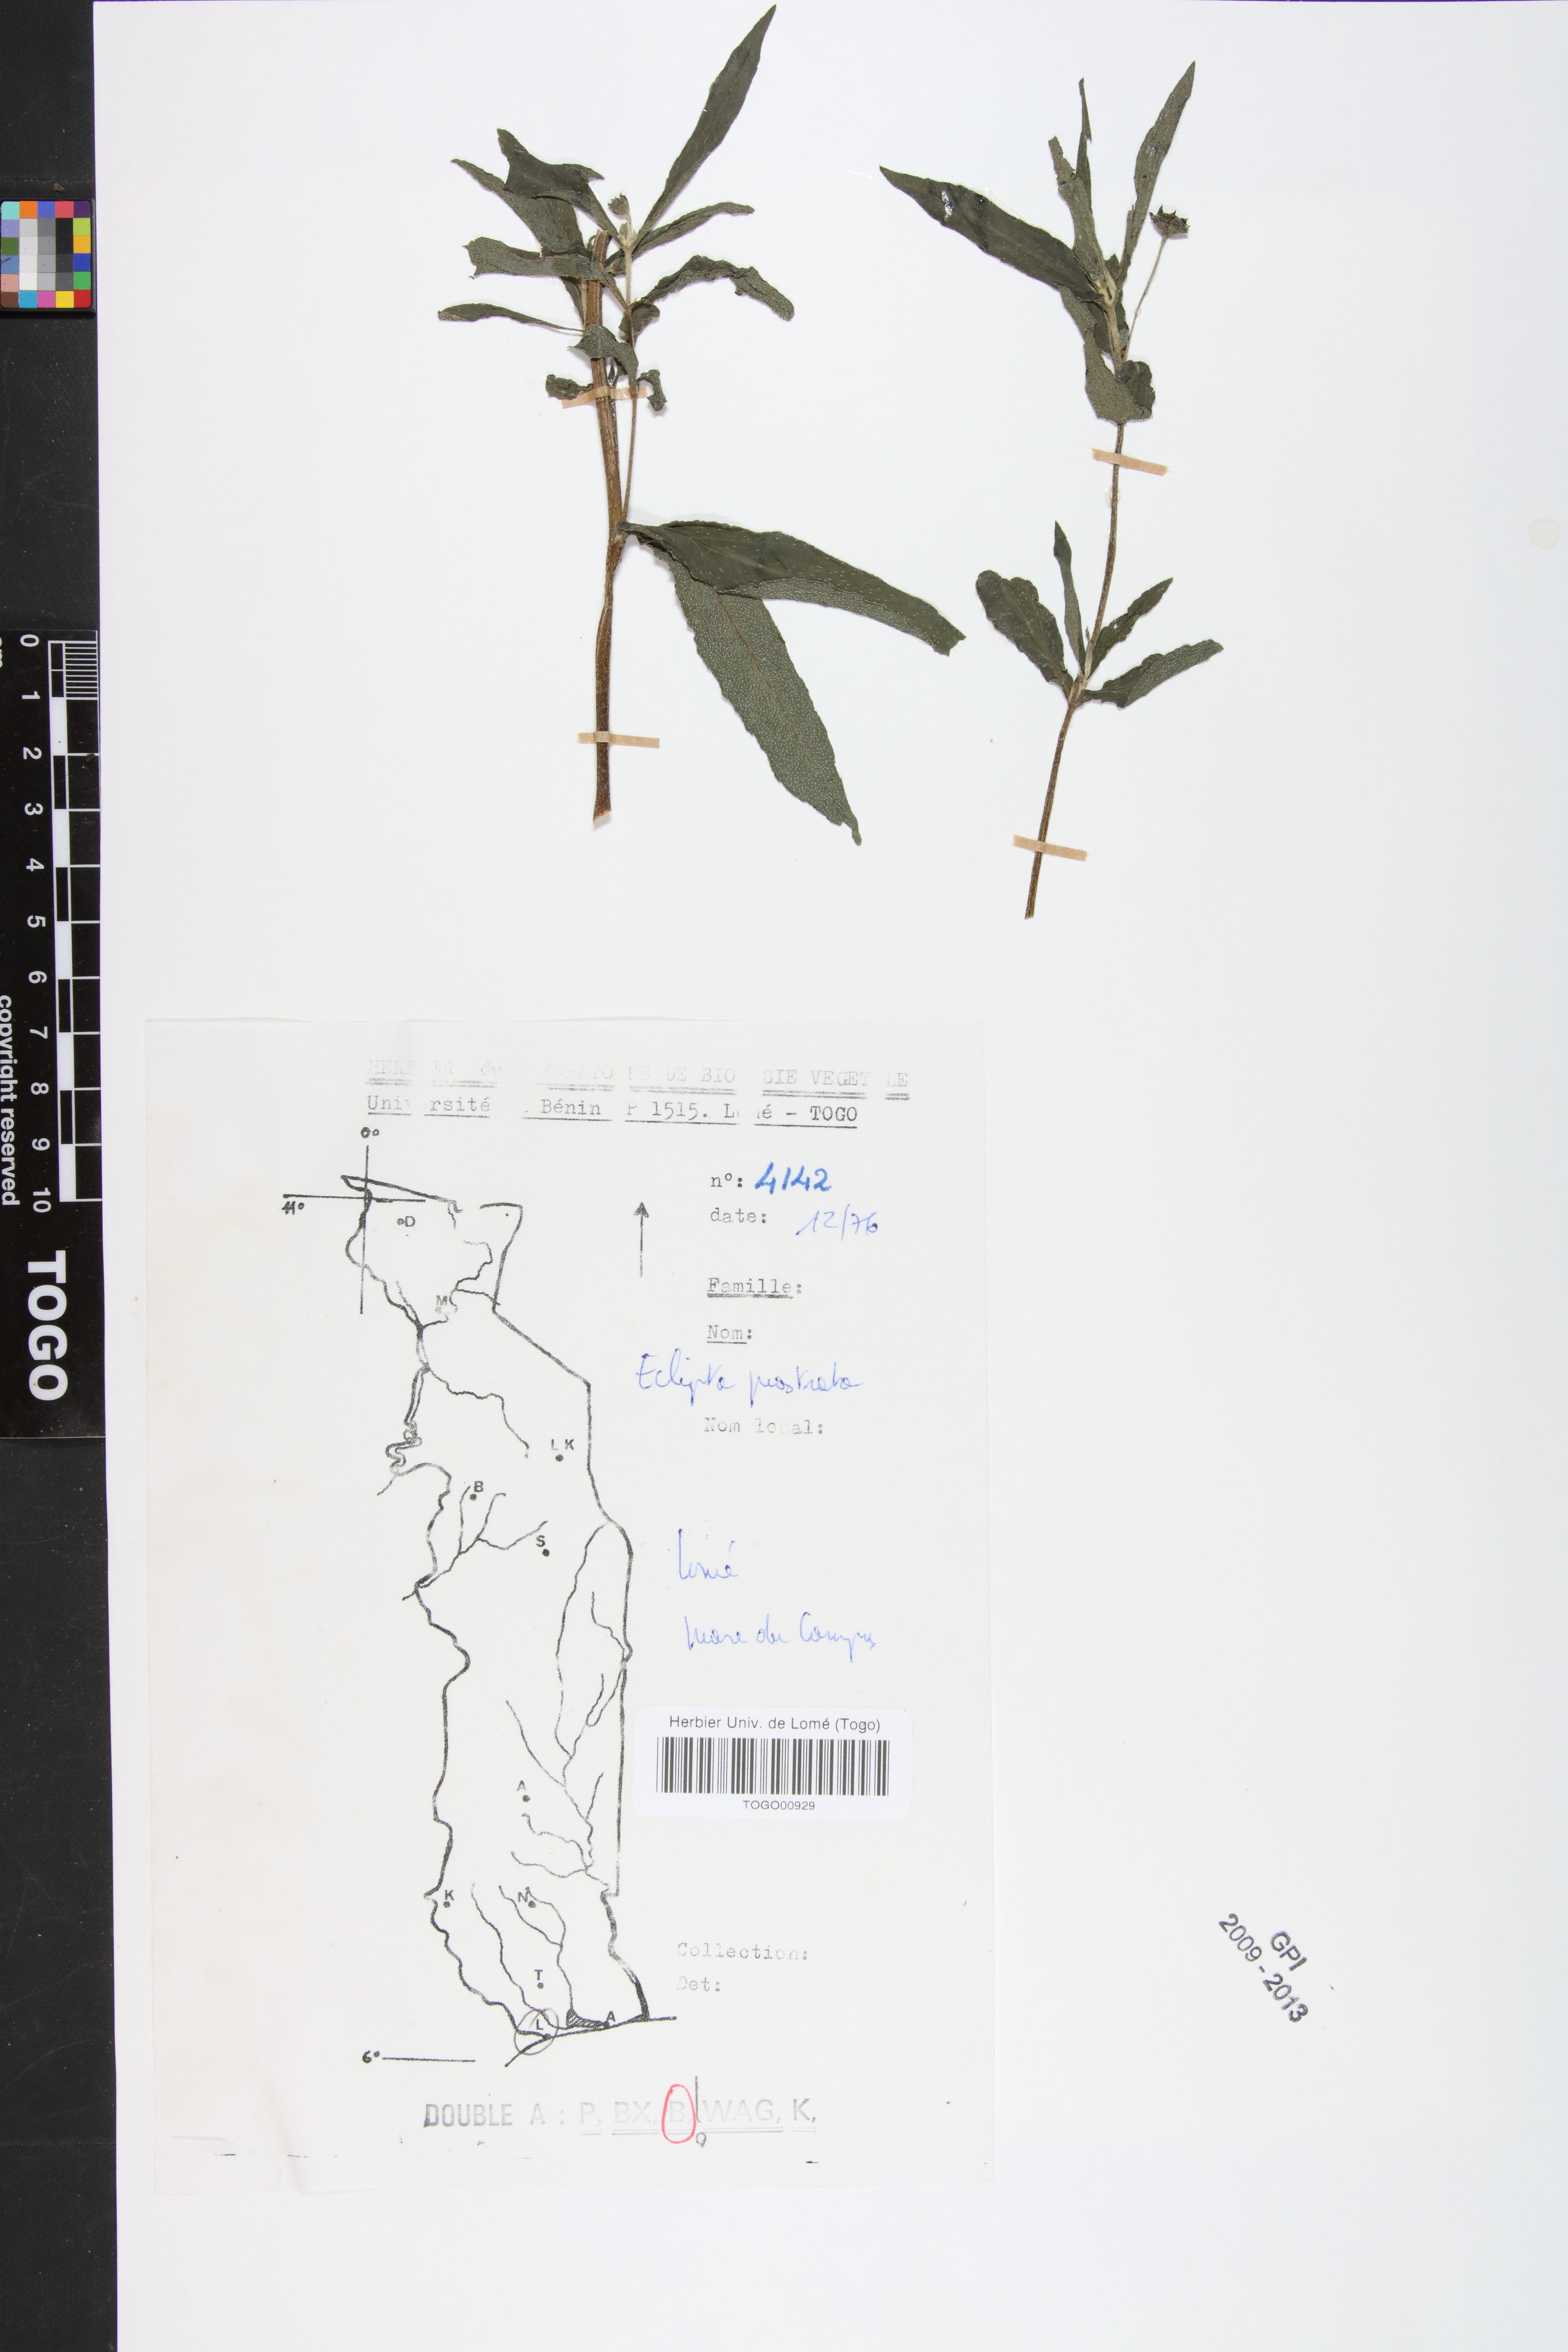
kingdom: Plantae
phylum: Tracheophyta
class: Magnoliopsida
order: Asterales
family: Asteraceae
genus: Eclipta
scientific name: Eclipta prostrata
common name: False daisy
